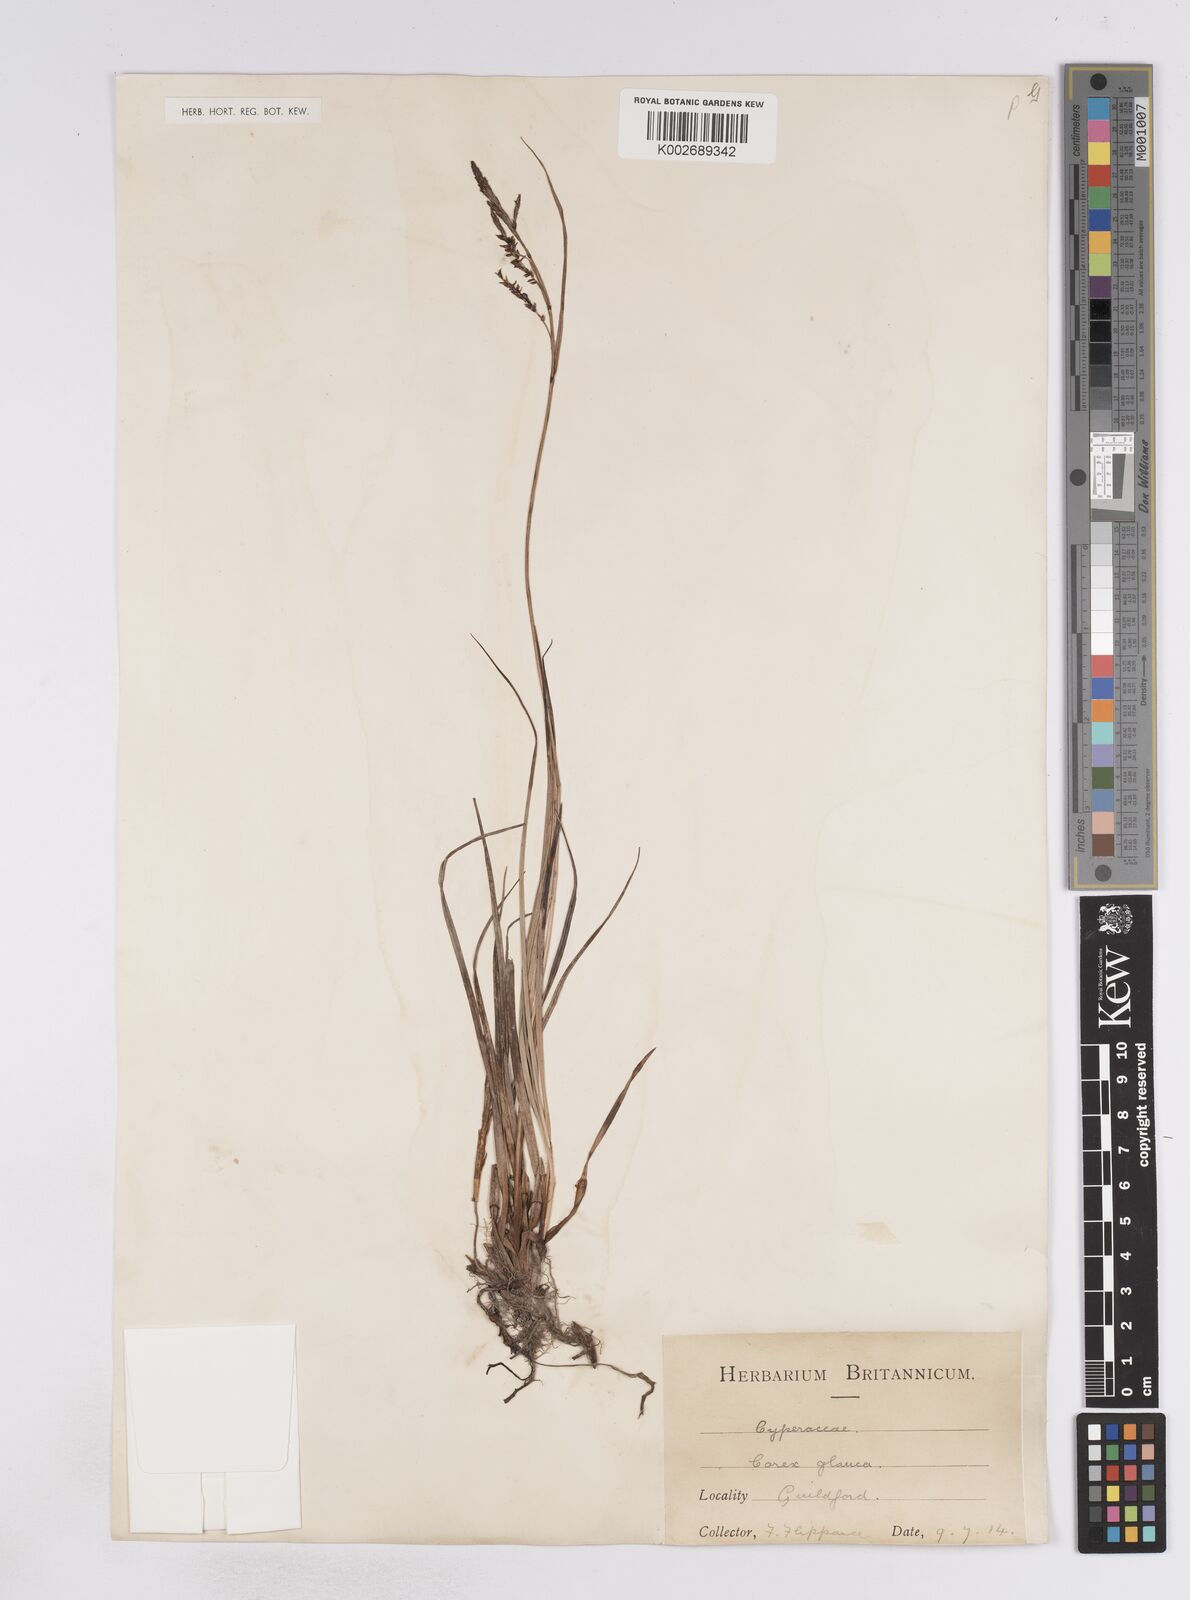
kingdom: Plantae
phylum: Tracheophyta
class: Liliopsida
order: Poales
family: Cyperaceae
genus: Carex
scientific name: Carex flacca
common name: Glaucous sedge
